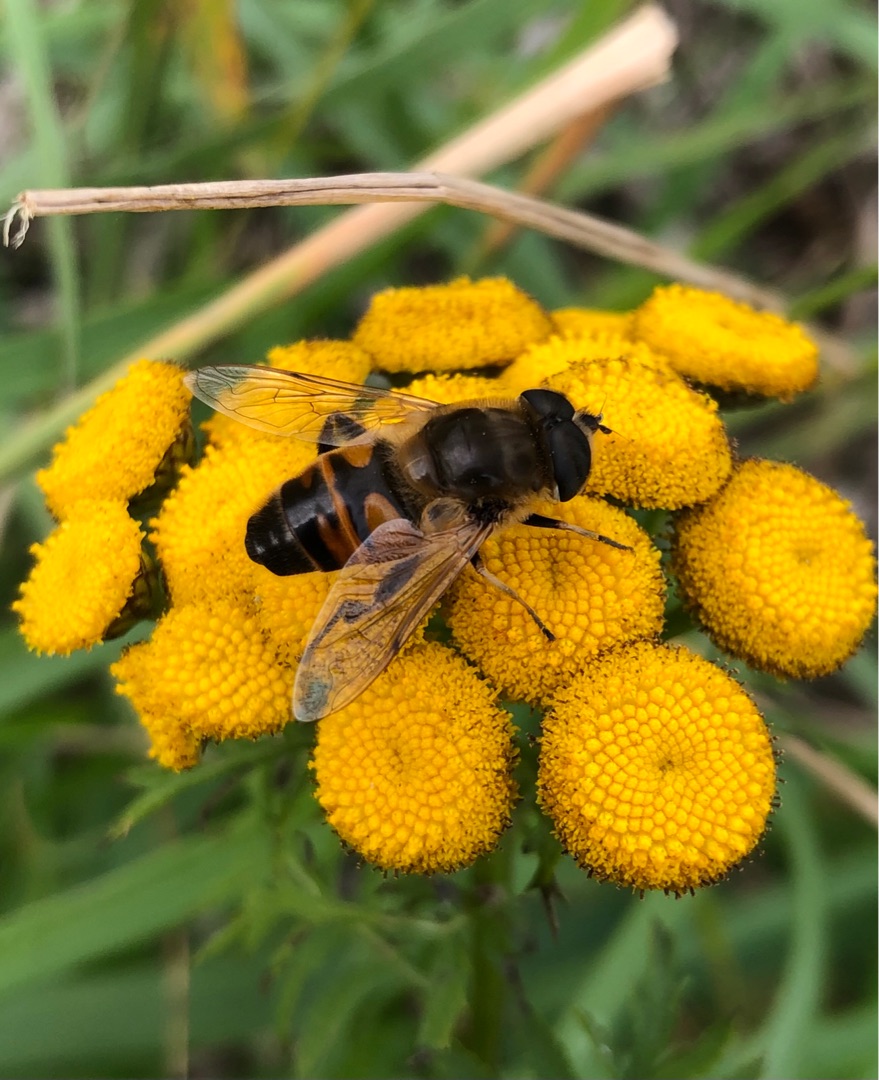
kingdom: Animalia
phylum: Arthropoda
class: Insecta
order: Diptera
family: Syrphidae
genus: Eristalis
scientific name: Eristalis tenax
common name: Droneflue
